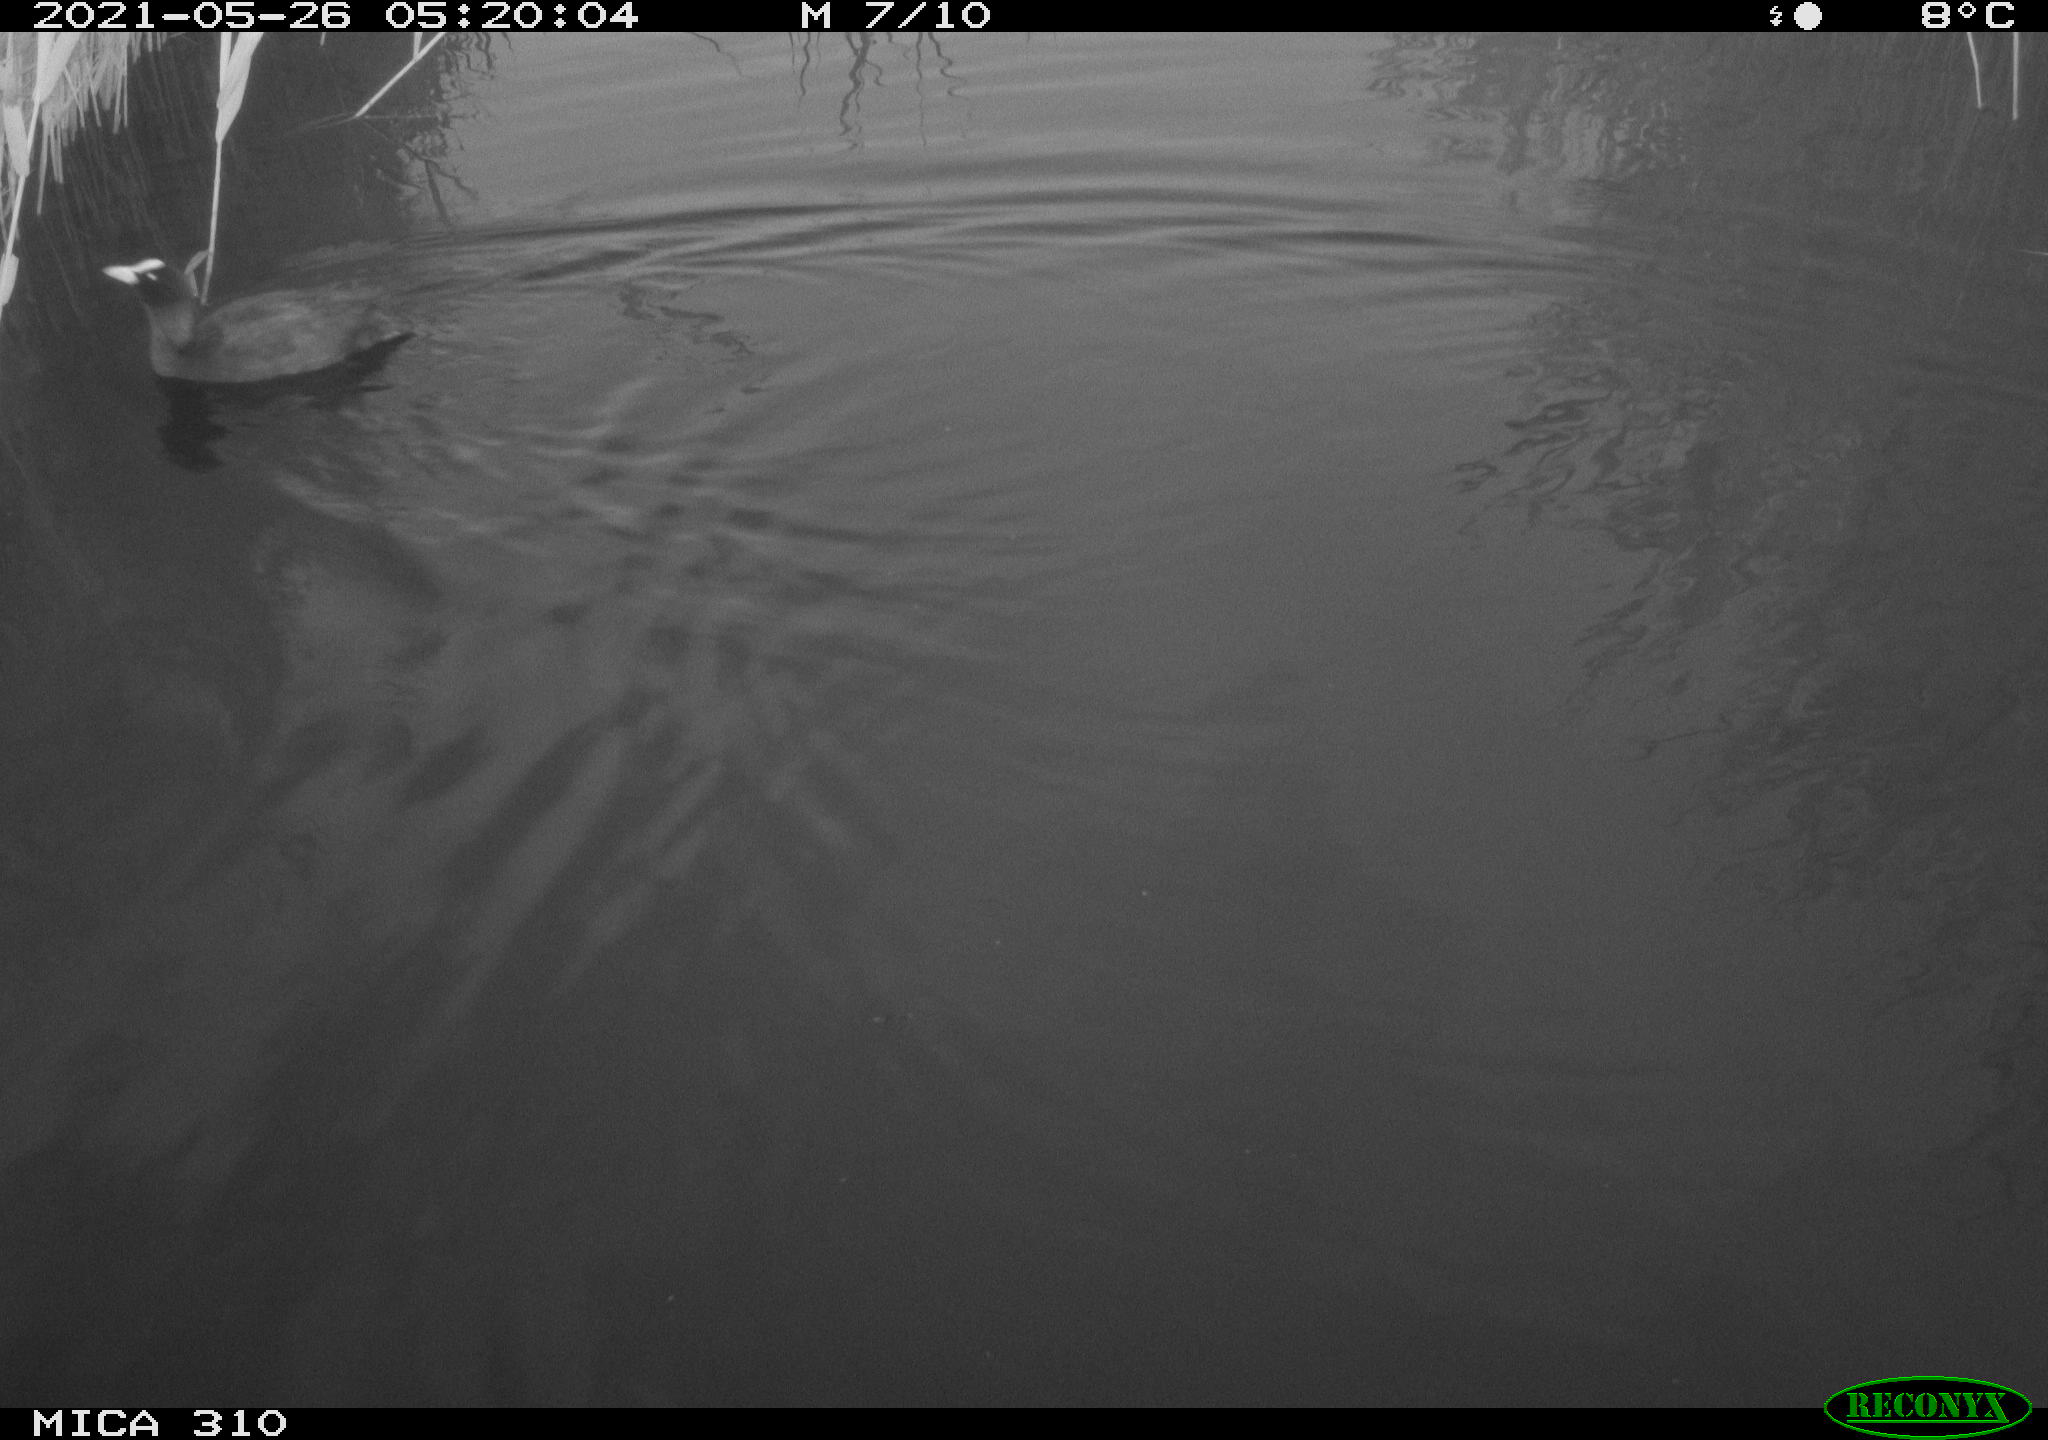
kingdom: Animalia
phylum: Chordata
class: Aves
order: Gruiformes
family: Rallidae
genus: Fulica
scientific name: Fulica atra
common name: Eurasian coot
